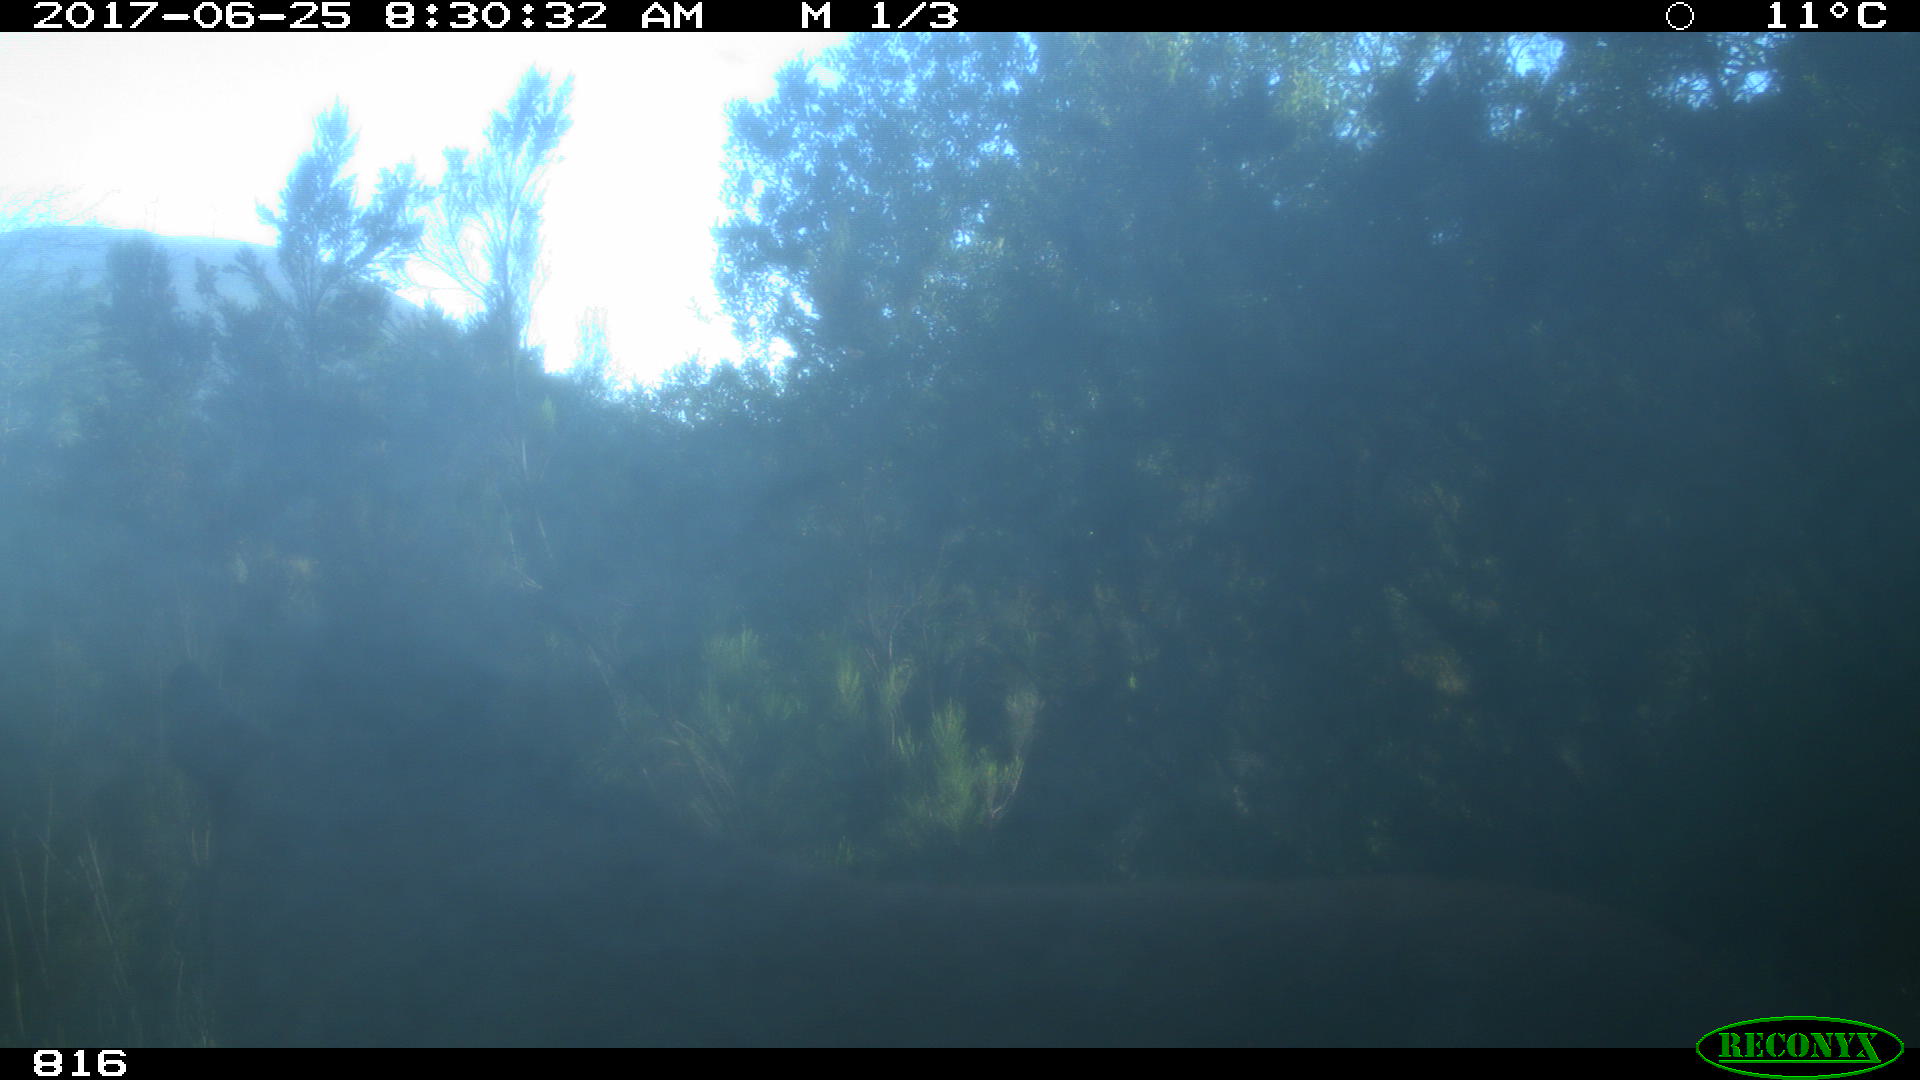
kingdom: Animalia
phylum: Chordata
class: Mammalia
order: Perissodactyla
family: Equidae
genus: Equus
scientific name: Equus caballus
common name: Horse
